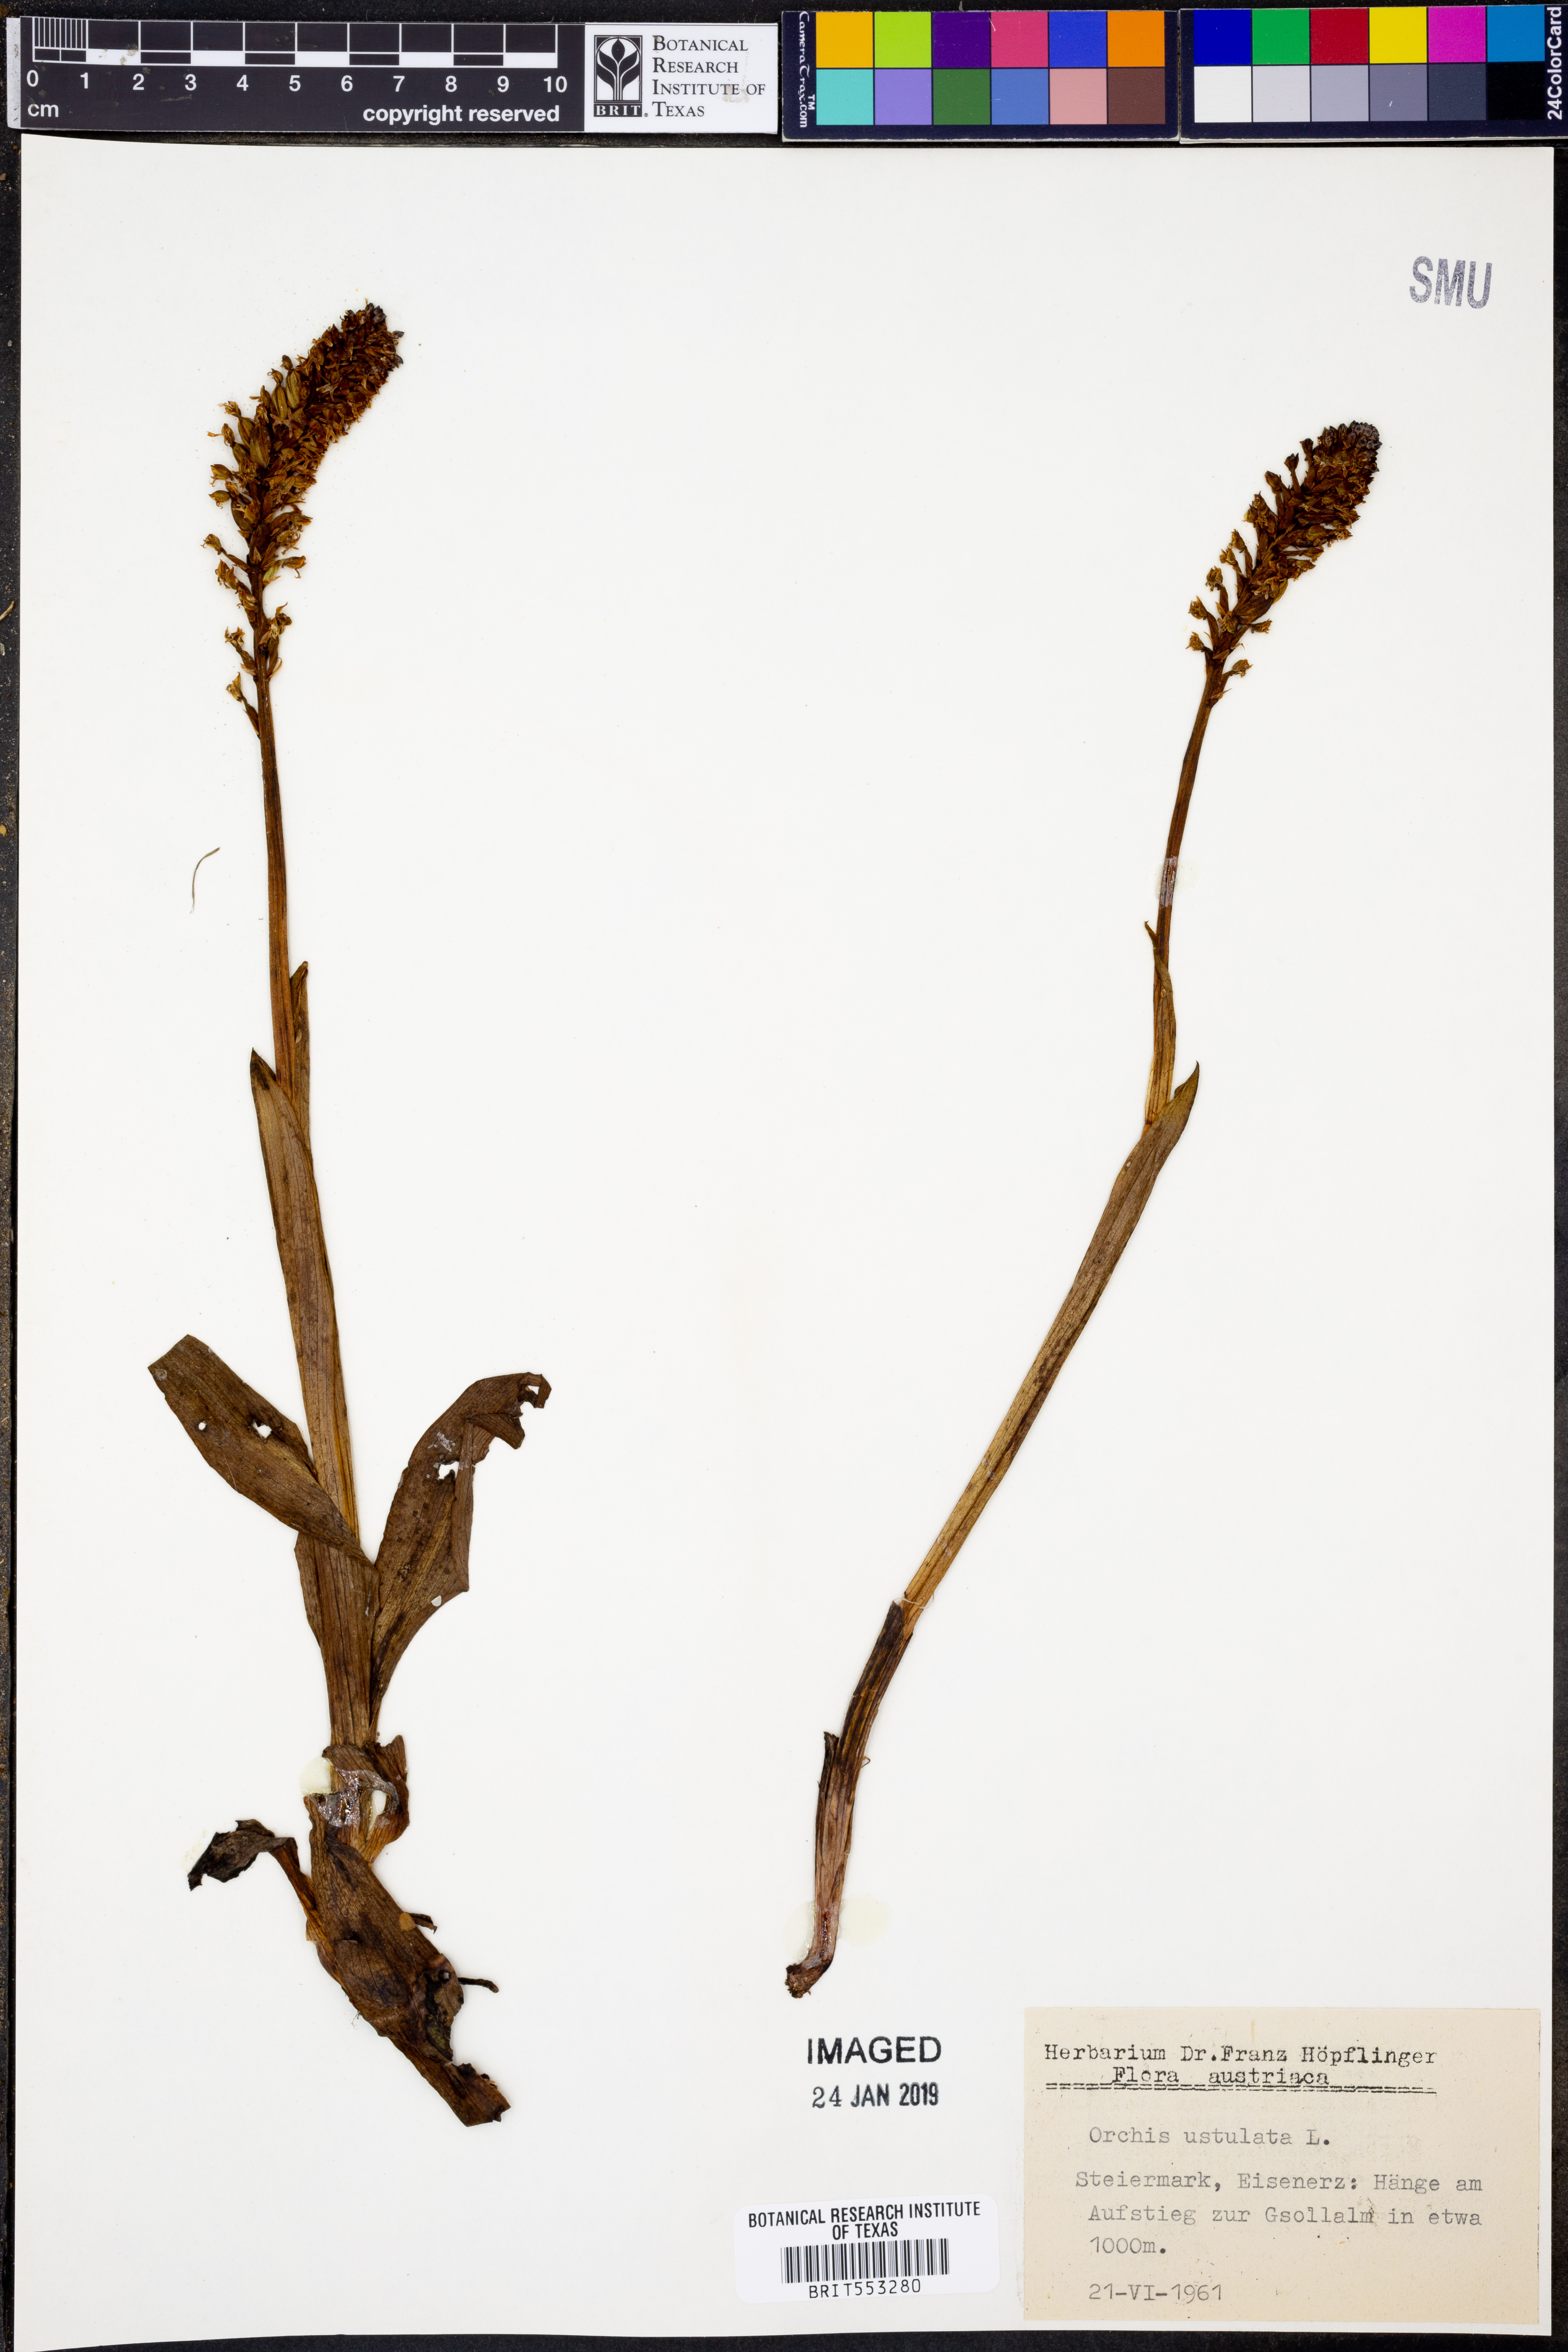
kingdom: Plantae
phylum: Tracheophyta
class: Liliopsida
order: Asparagales
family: Orchidaceae
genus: Neotinea
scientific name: Neotinea ustulata
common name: Burnt orchid
